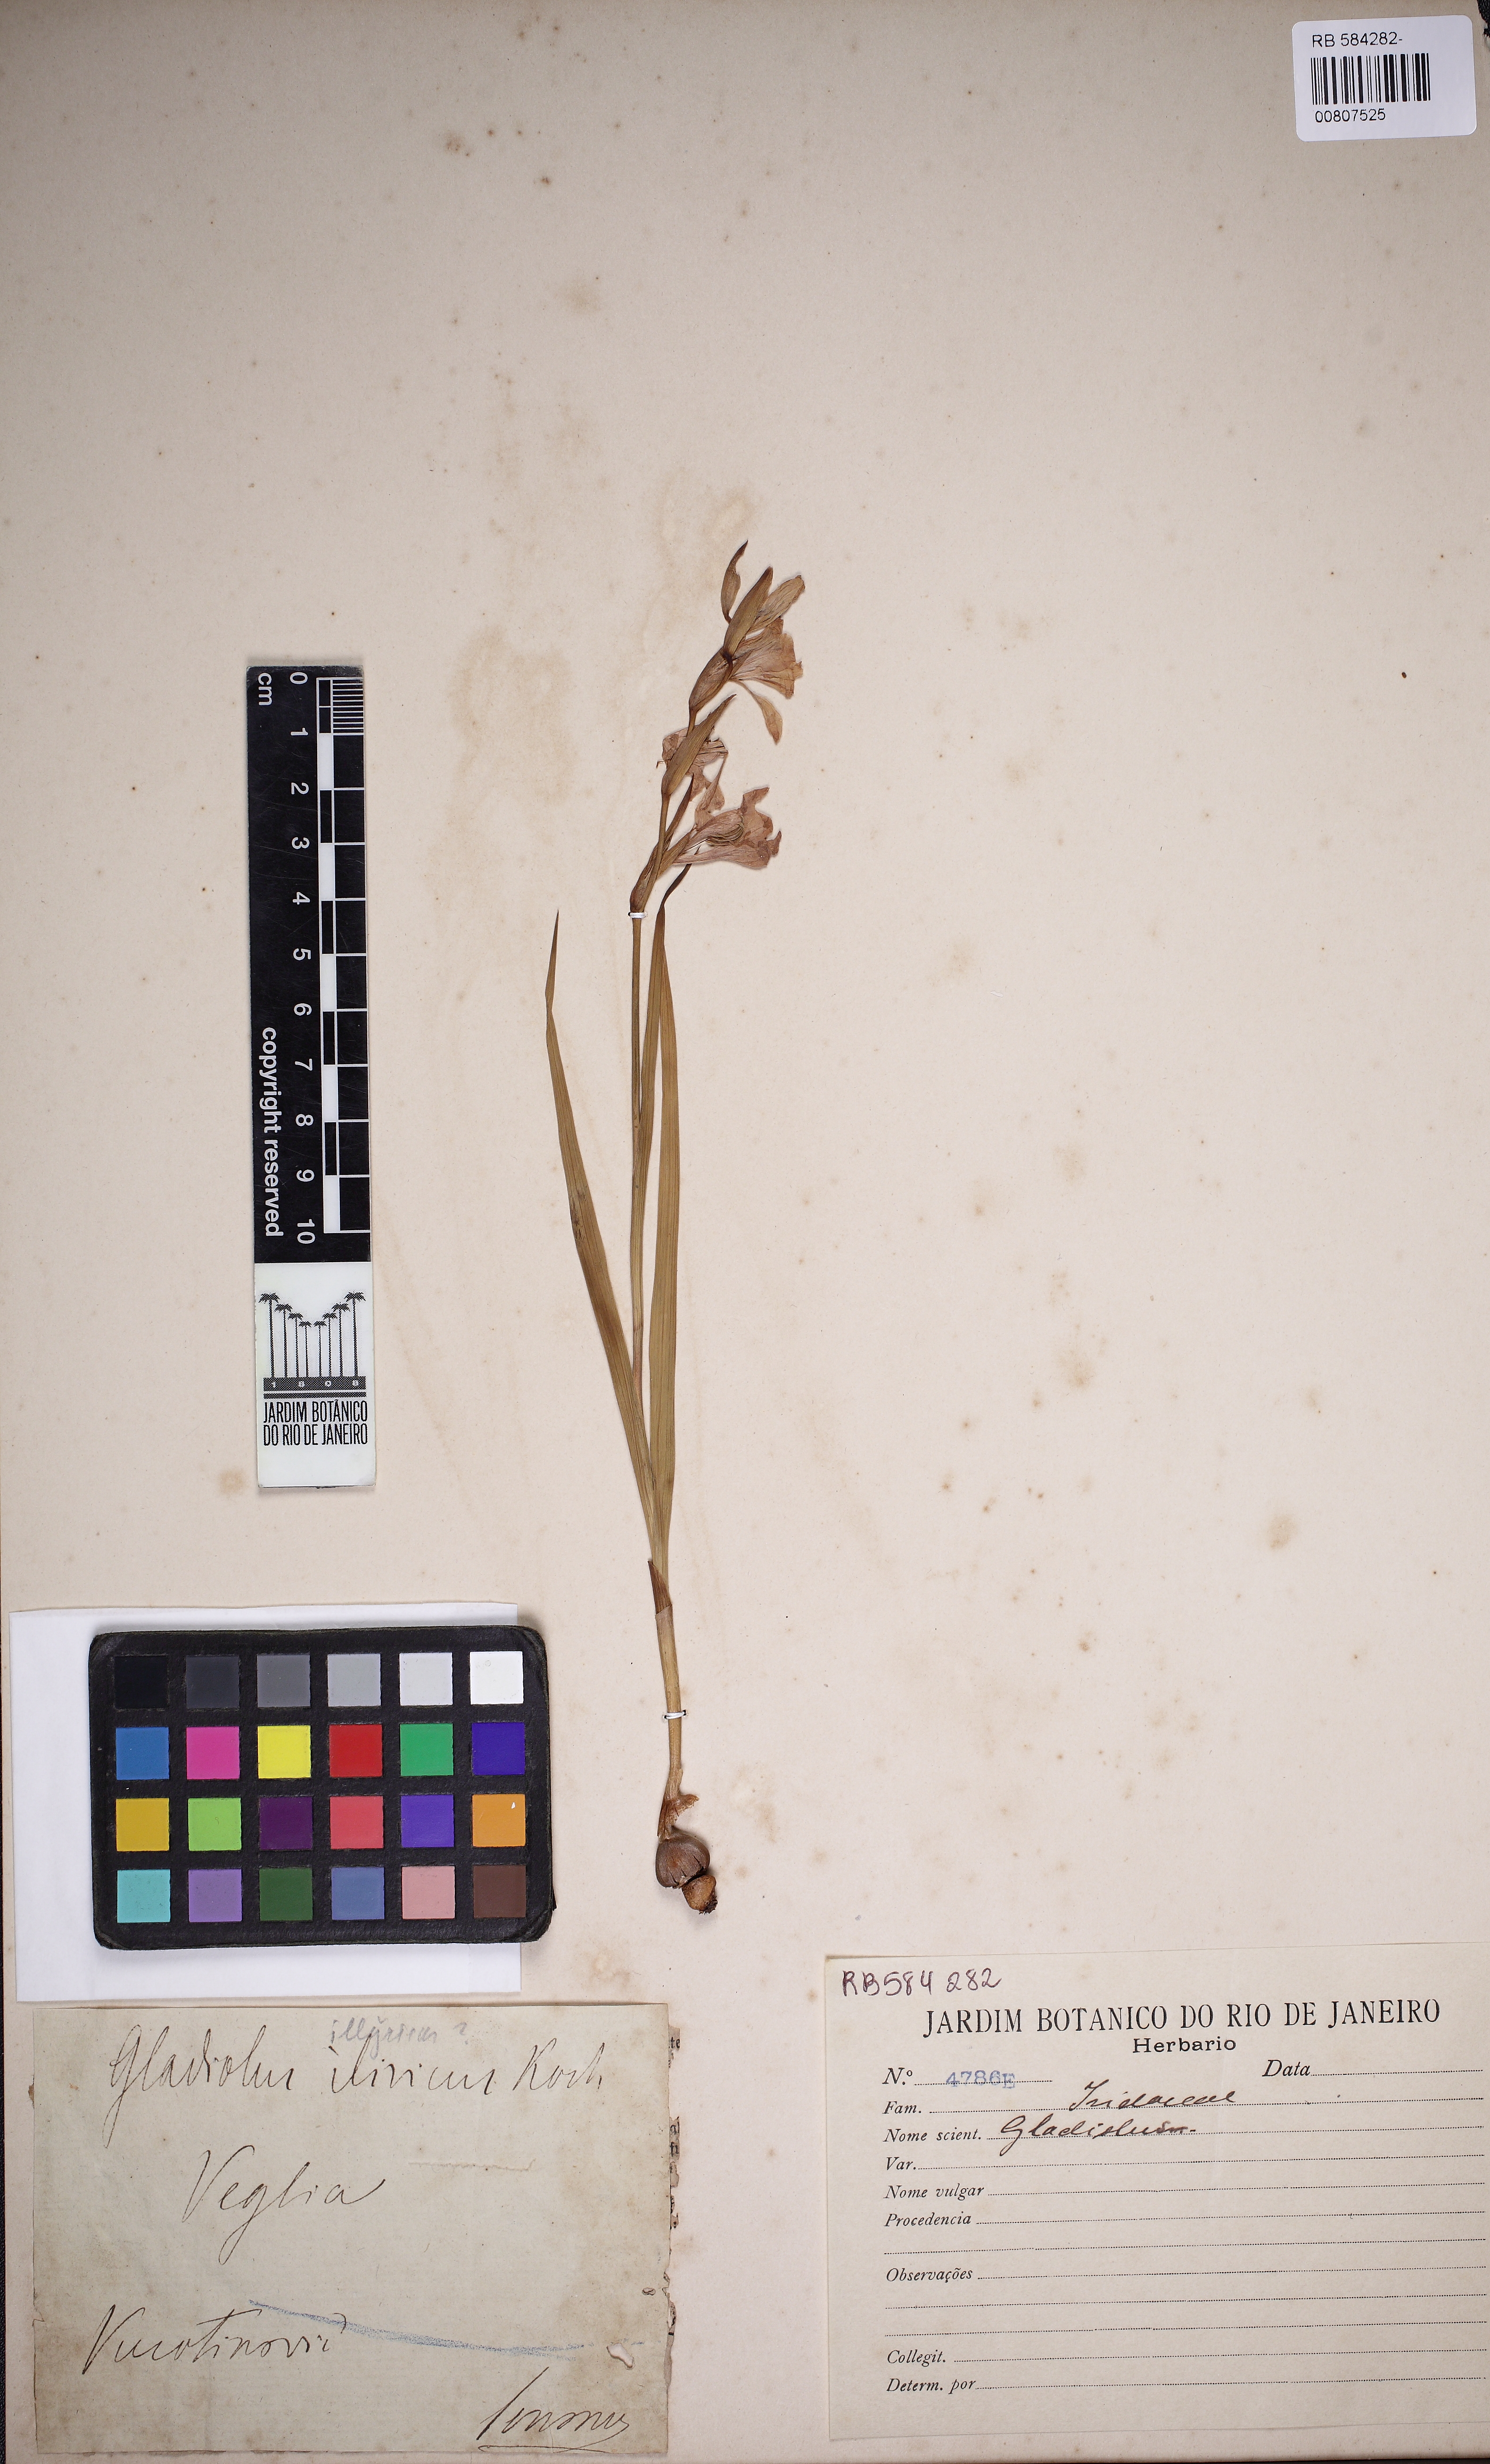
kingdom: Plantae
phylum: Tracheophyta
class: Liliopsida
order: Asparagales
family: Iridaceae
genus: Gladiolus
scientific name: Gladiolus illyricus
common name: Wild gladiolus
